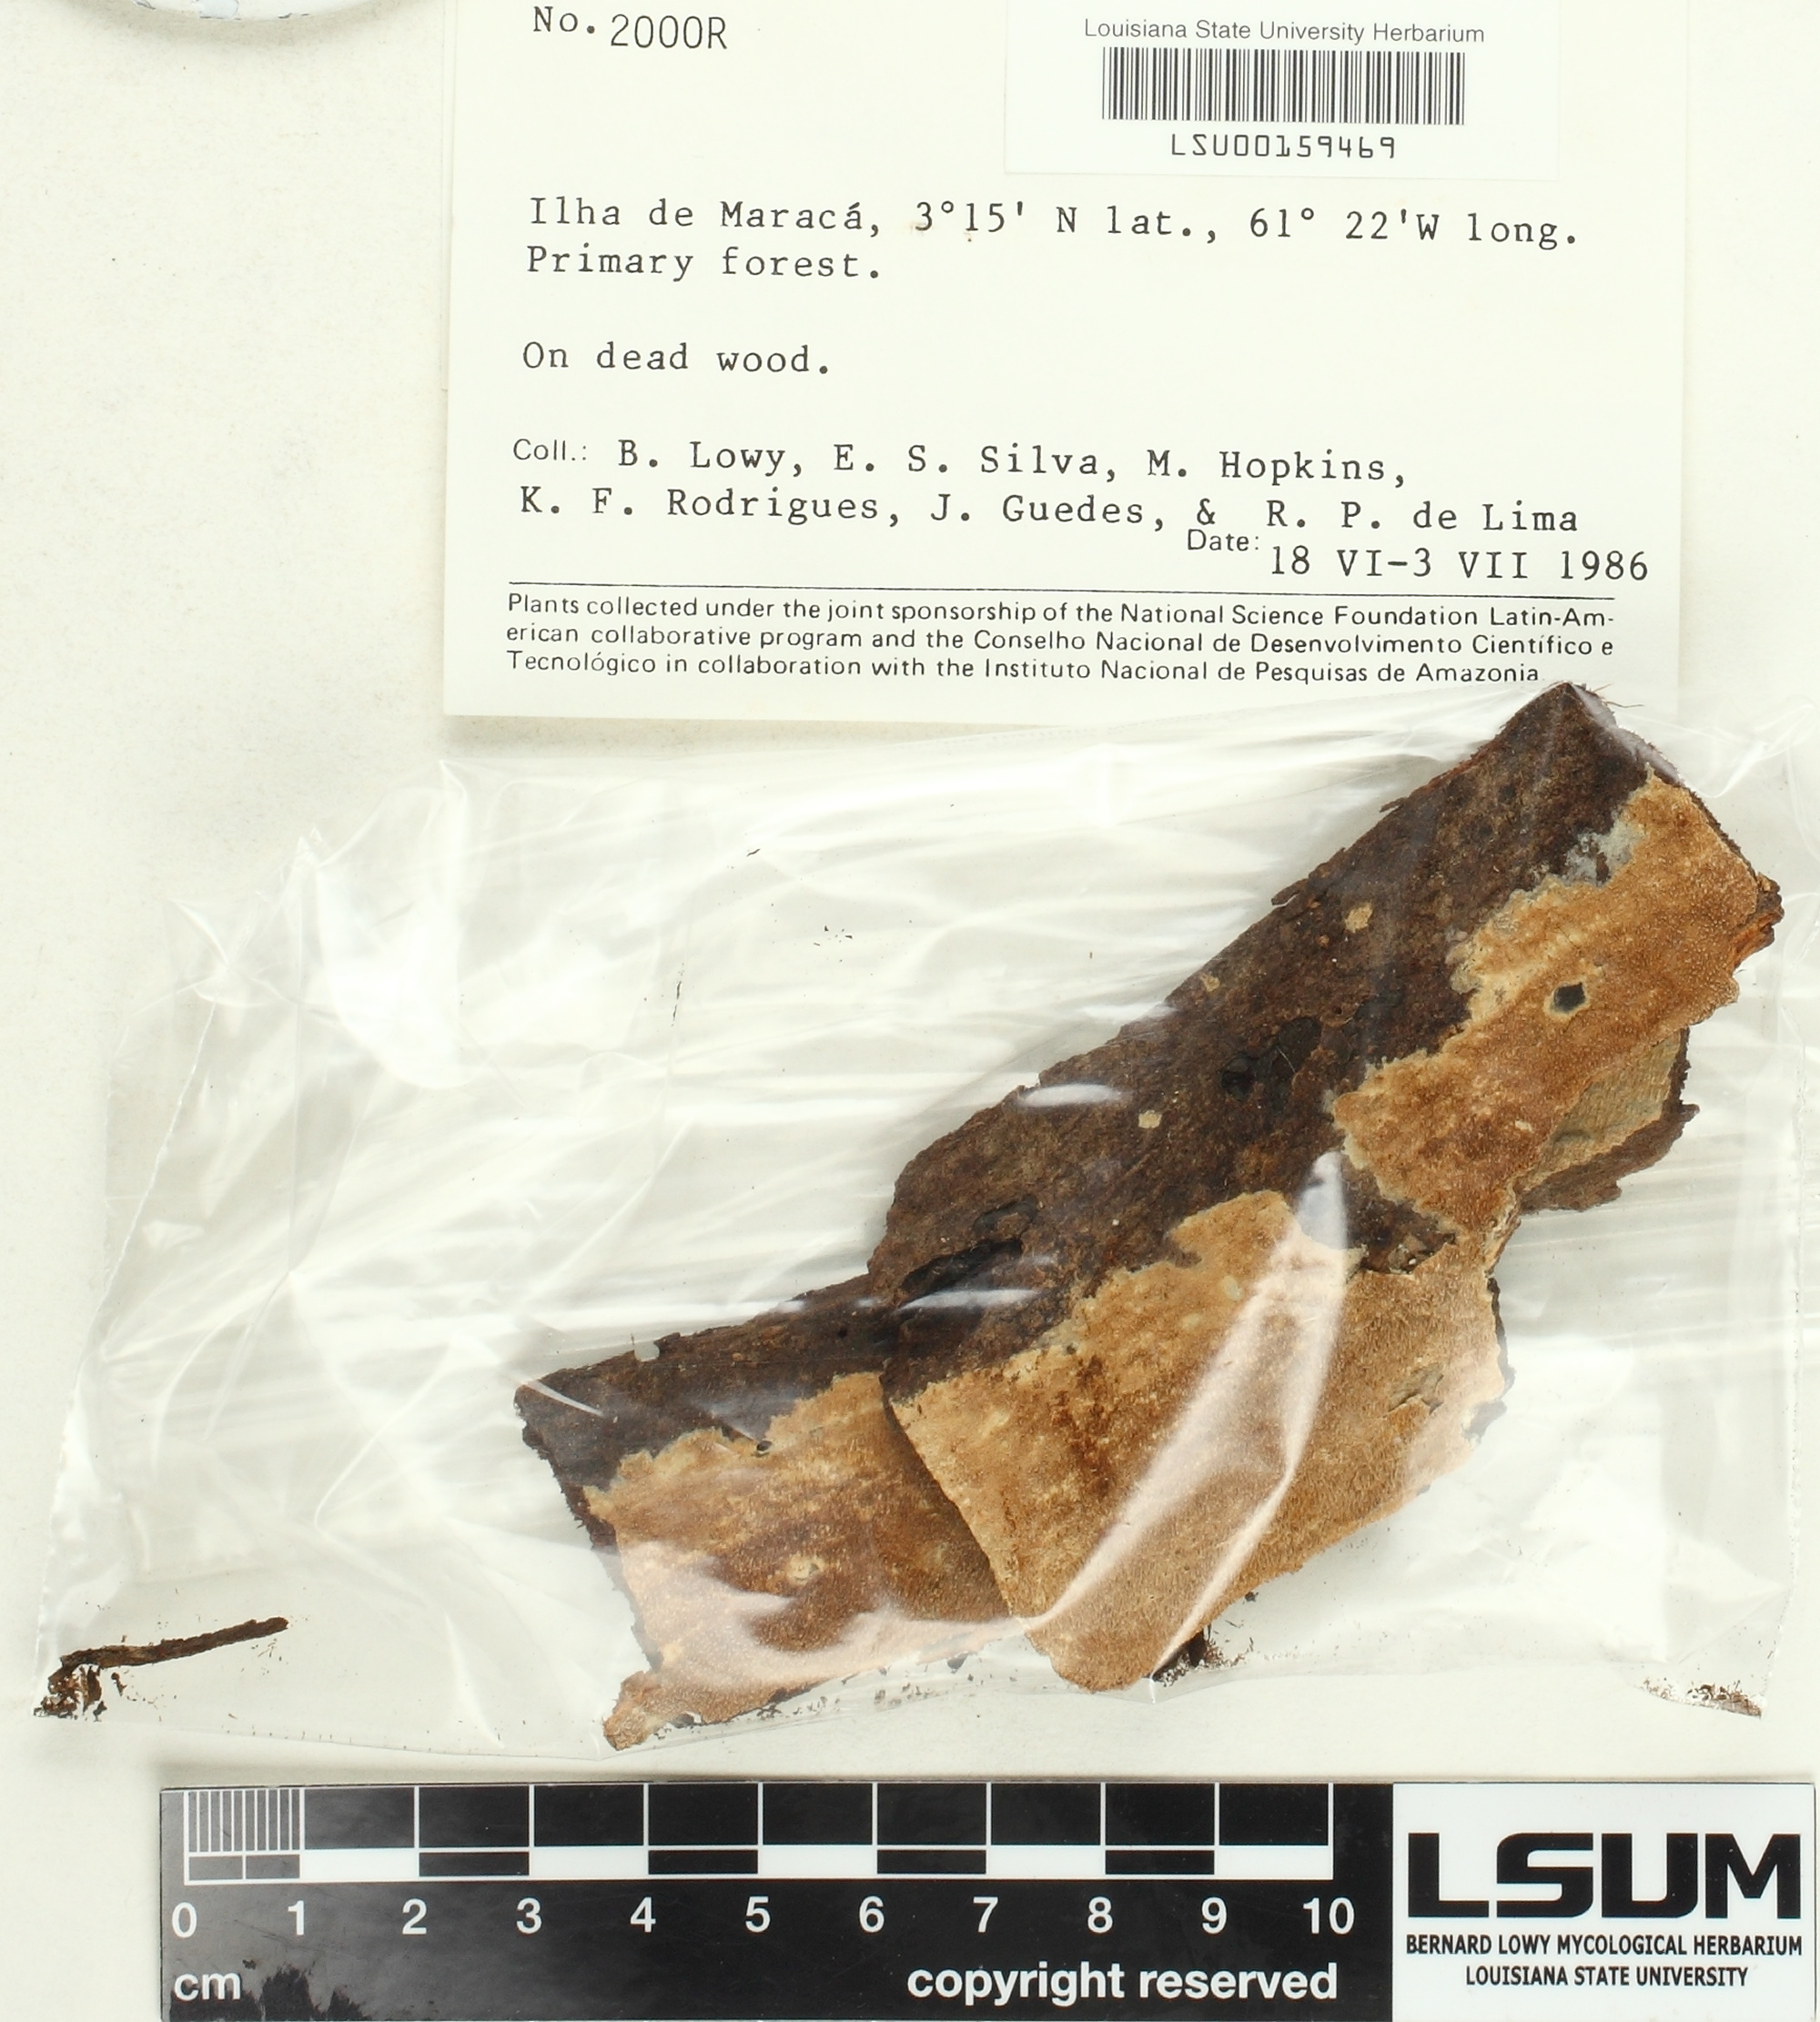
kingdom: Fungi
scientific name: Fungi
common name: Fungi
